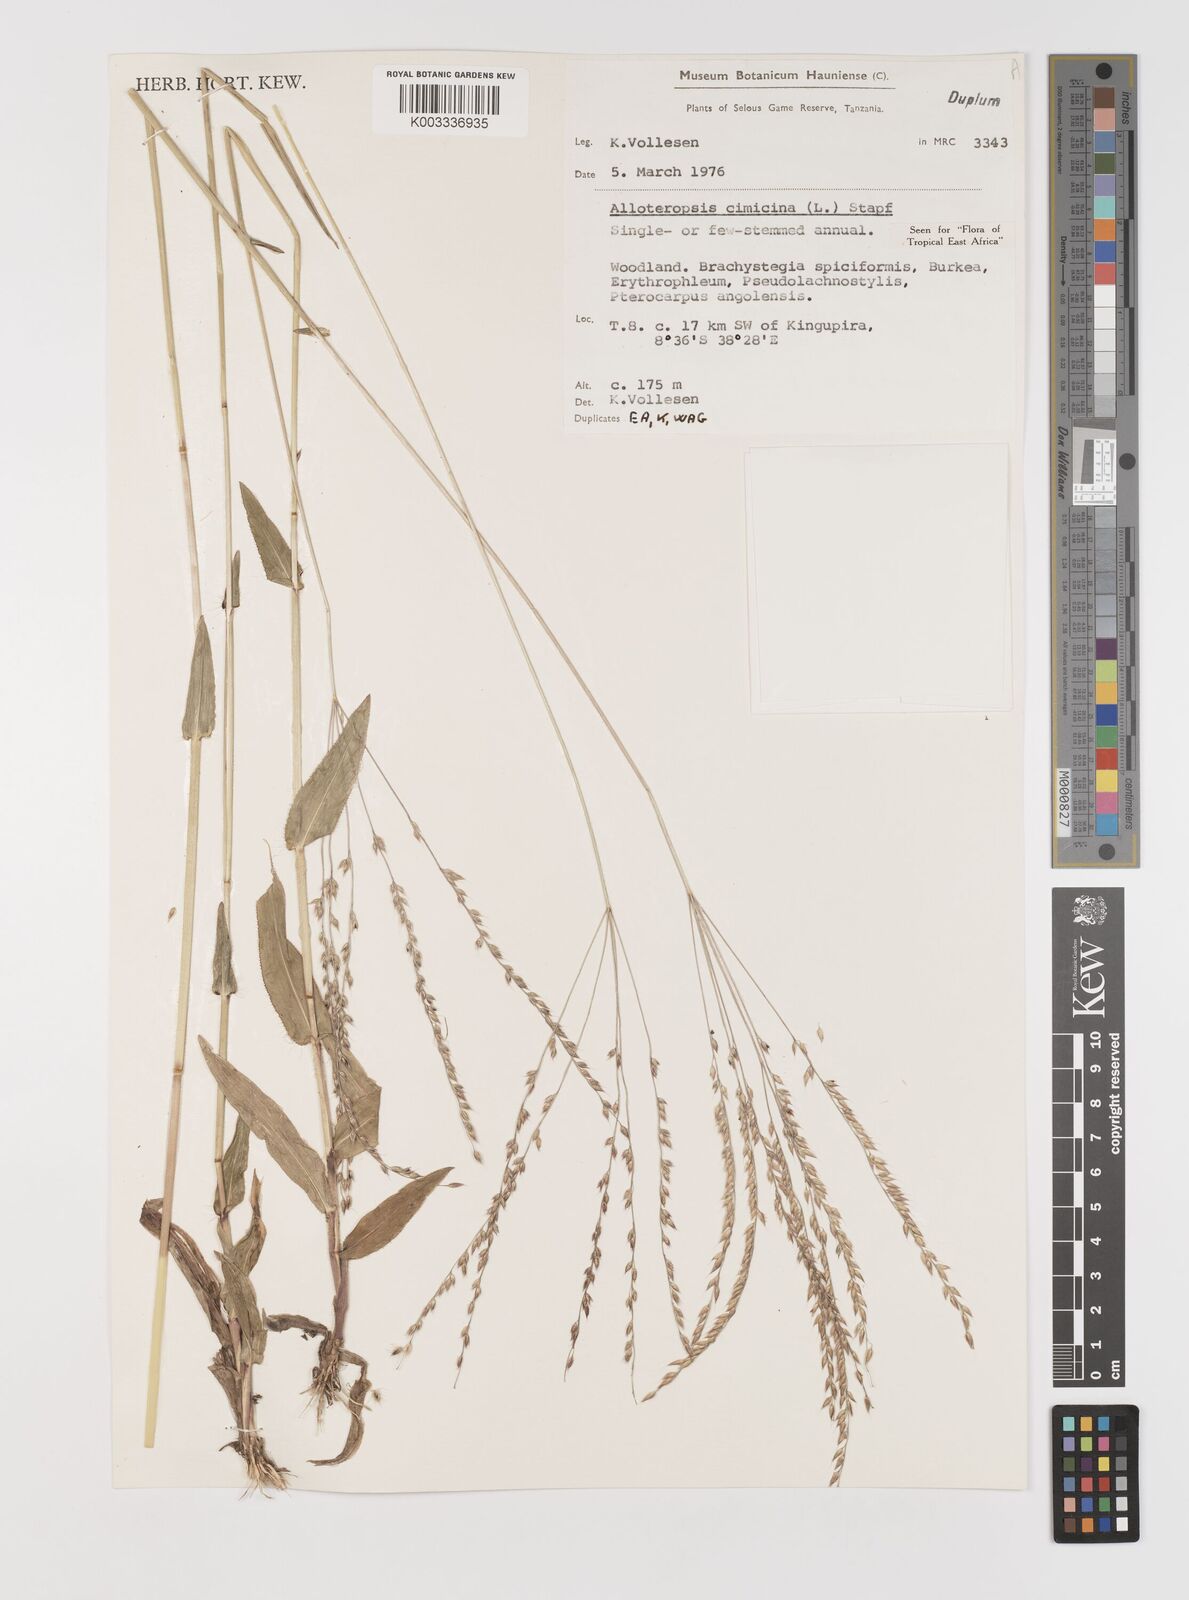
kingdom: Plantae
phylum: Tracheophyta
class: Liliopsida
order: Poales
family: Poaceae
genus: Alloteropsis
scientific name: Alloteropsis cimicina
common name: Summergrass
